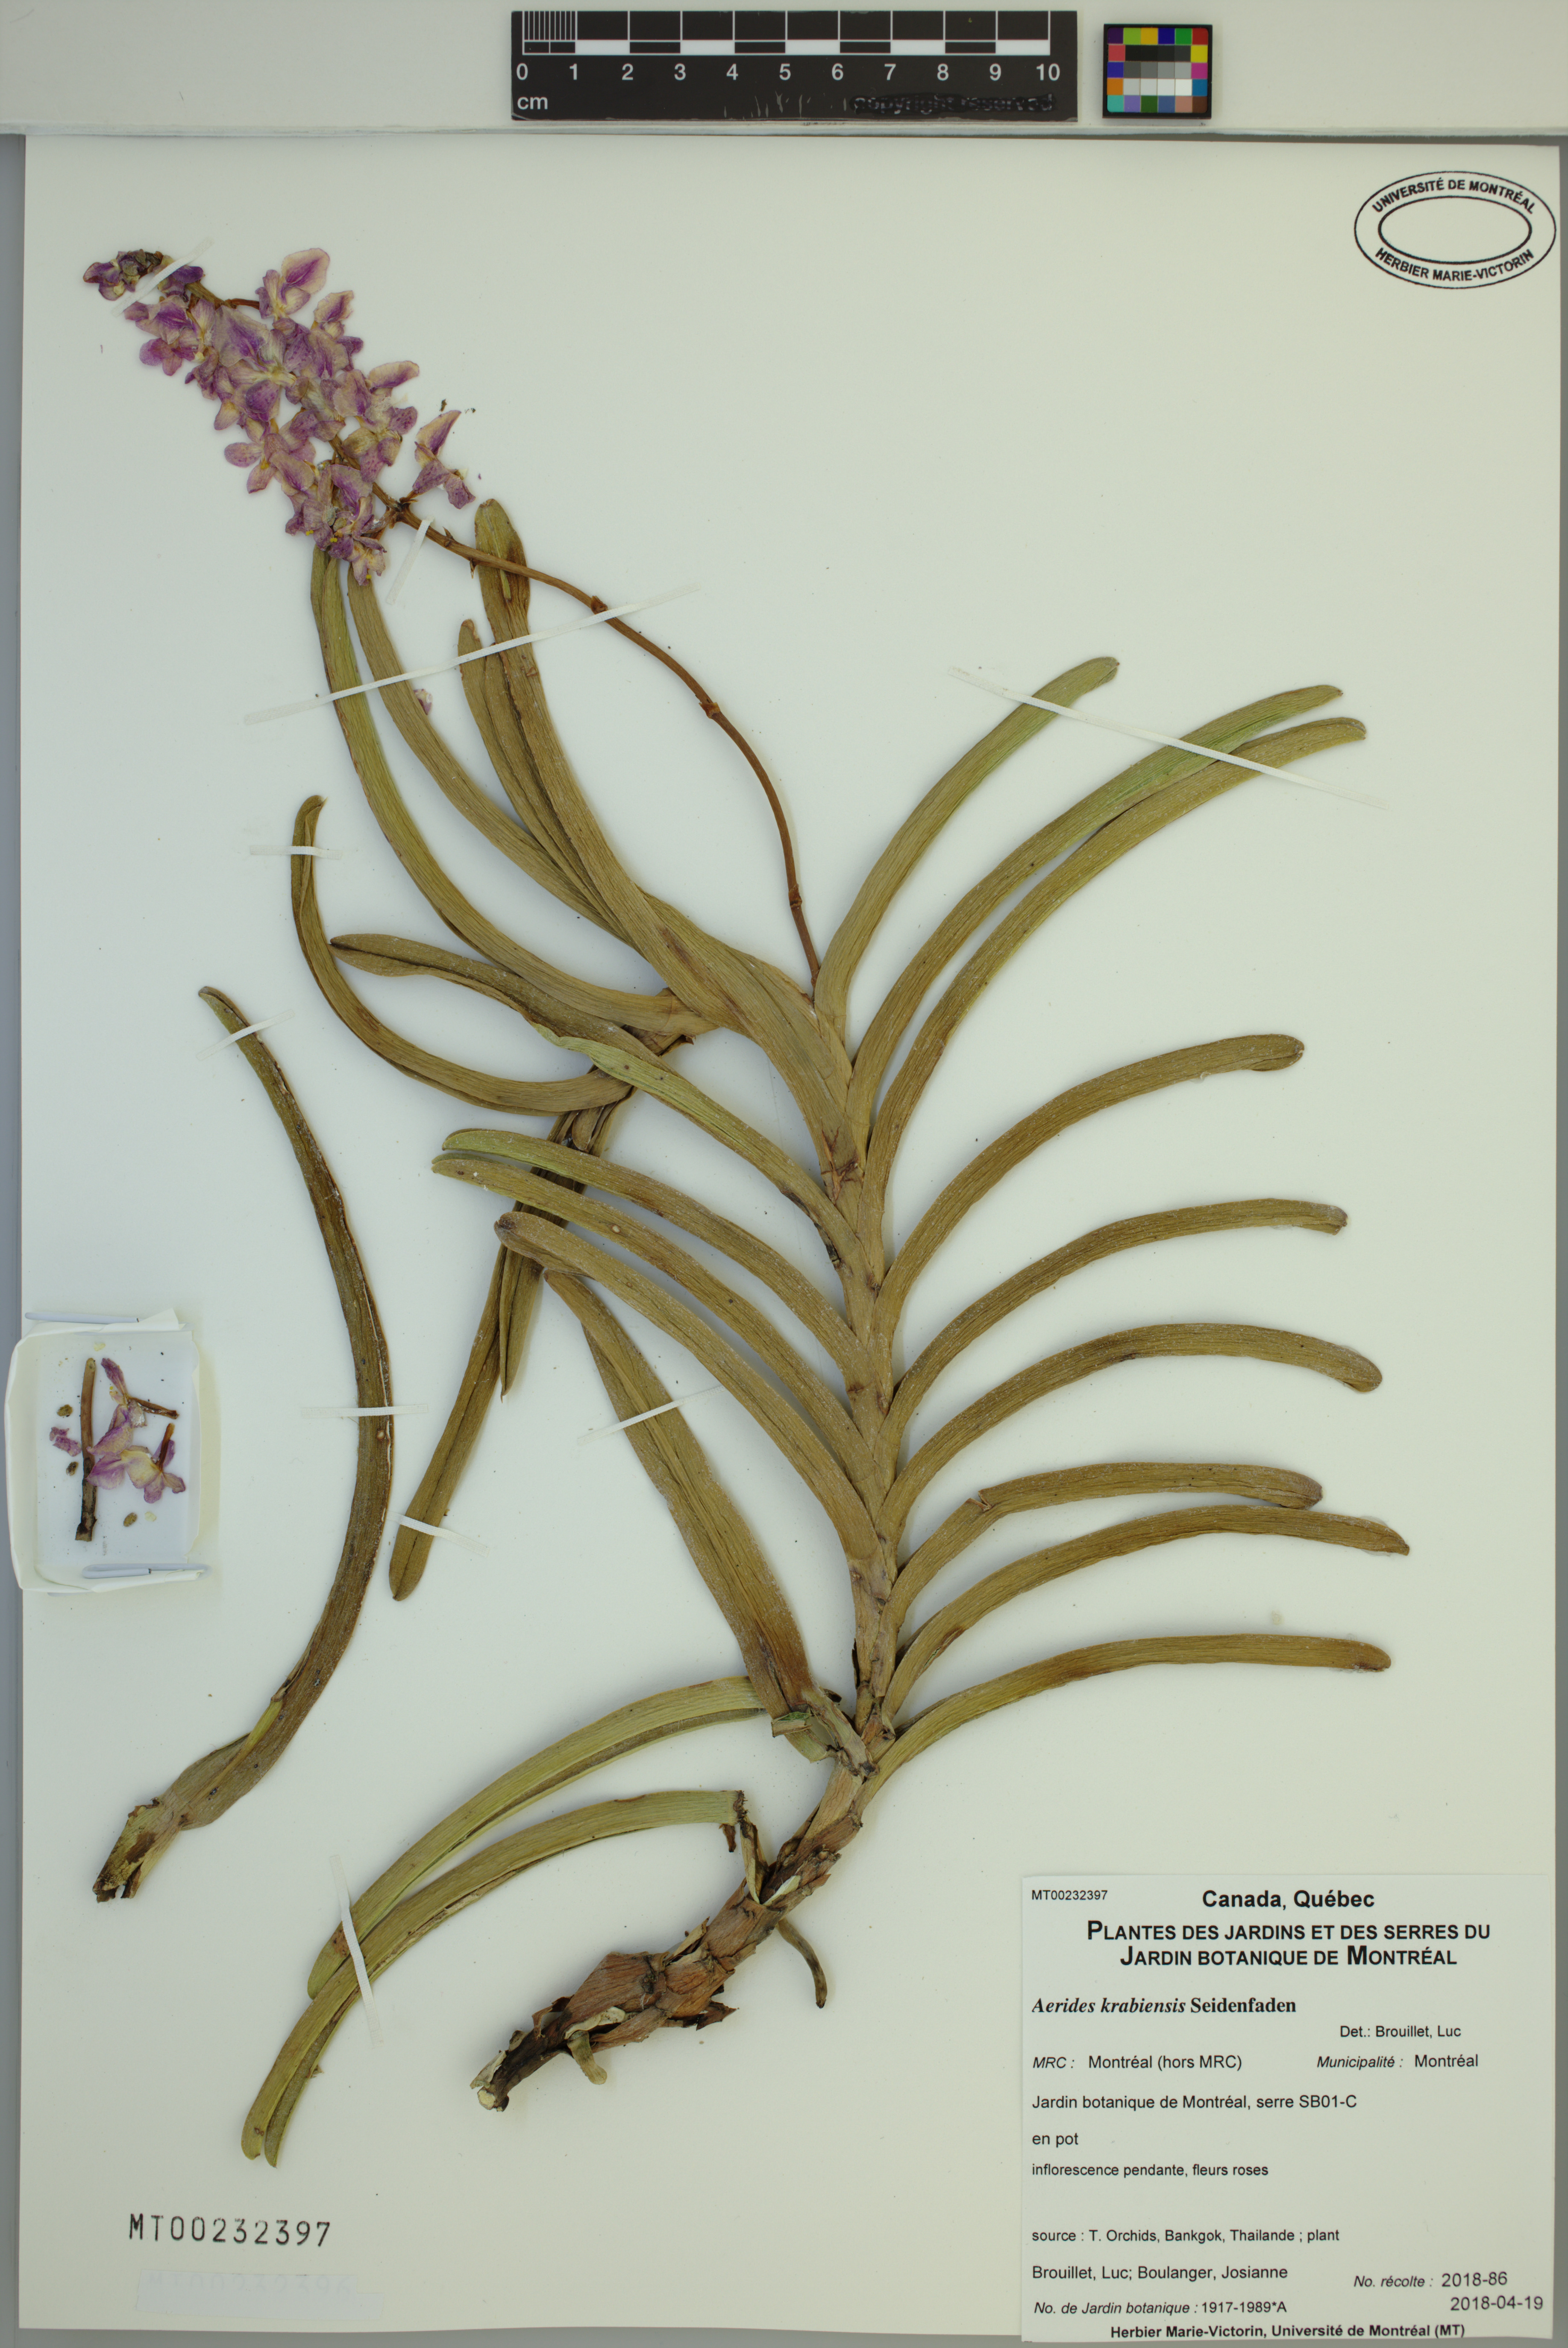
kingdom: Plantae
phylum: Tracheophyta
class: Liliopsida
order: Asparagales
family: Orchidaceae
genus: Aerides
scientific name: Aerides krabiensis
